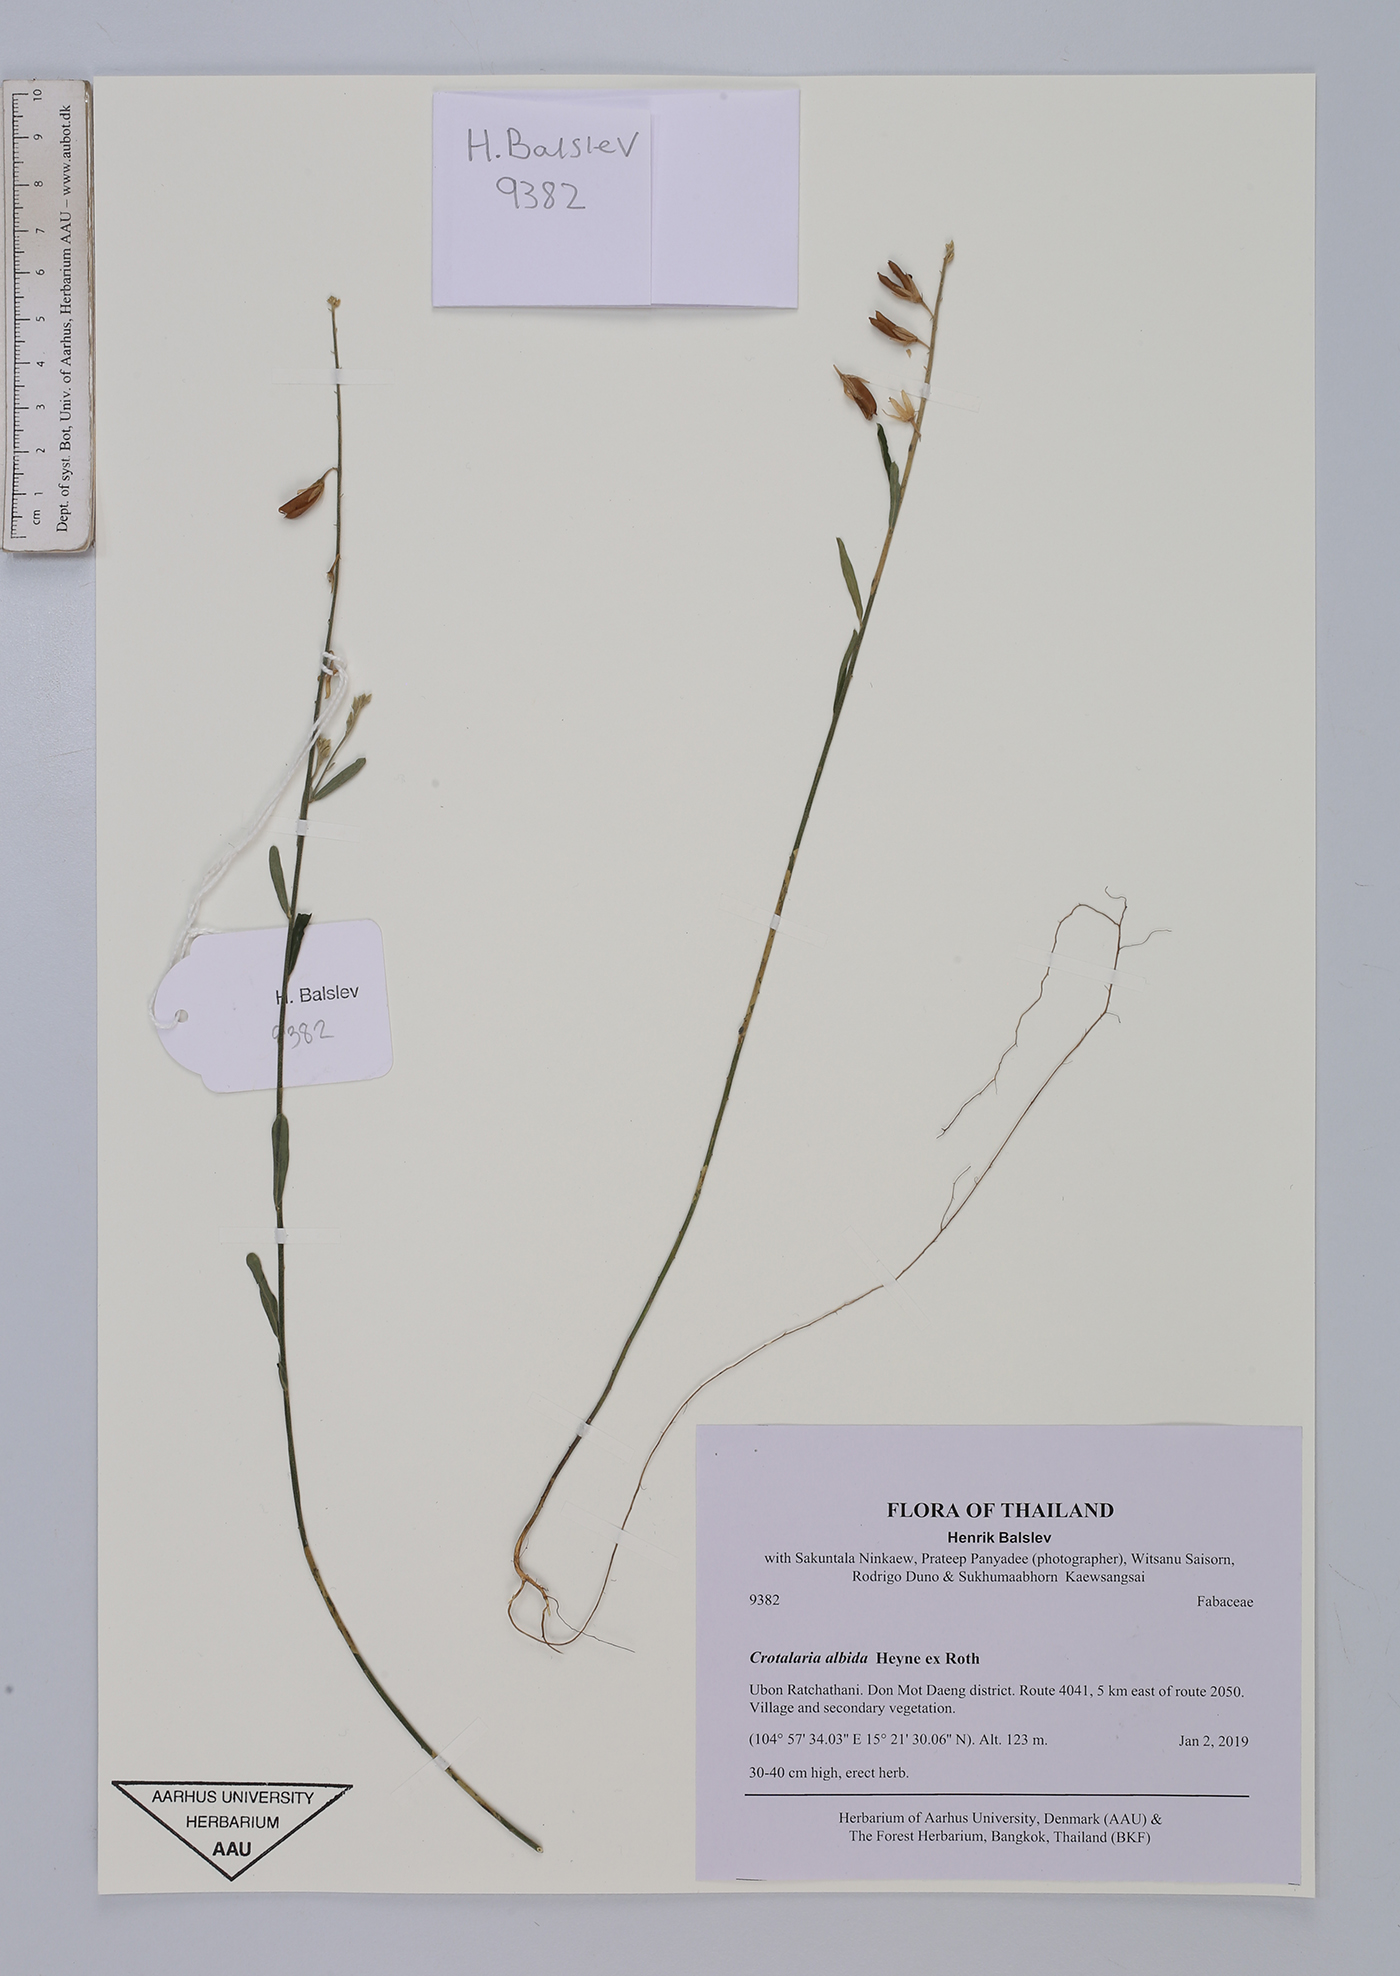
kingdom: Plantae
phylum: Tracheophyta
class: Magnoliopsida
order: Fabales
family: Fabaceae
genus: Crotalaria
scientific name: Crotalaria albida
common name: Taiwan crotalaria
